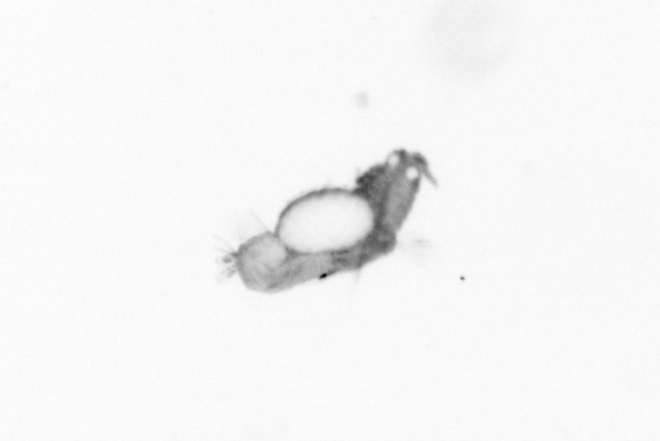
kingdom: Animalia
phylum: Annelida
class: Polychaeta
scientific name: Polychaeta
